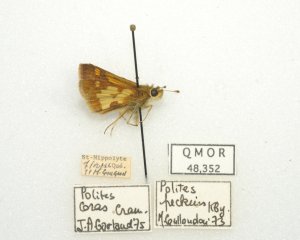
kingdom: Animalia
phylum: Arthropoda
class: Insecta
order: Lepidoptera
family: Hesperiidae
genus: Polites
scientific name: Polites coras
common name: Peck's Skipper
